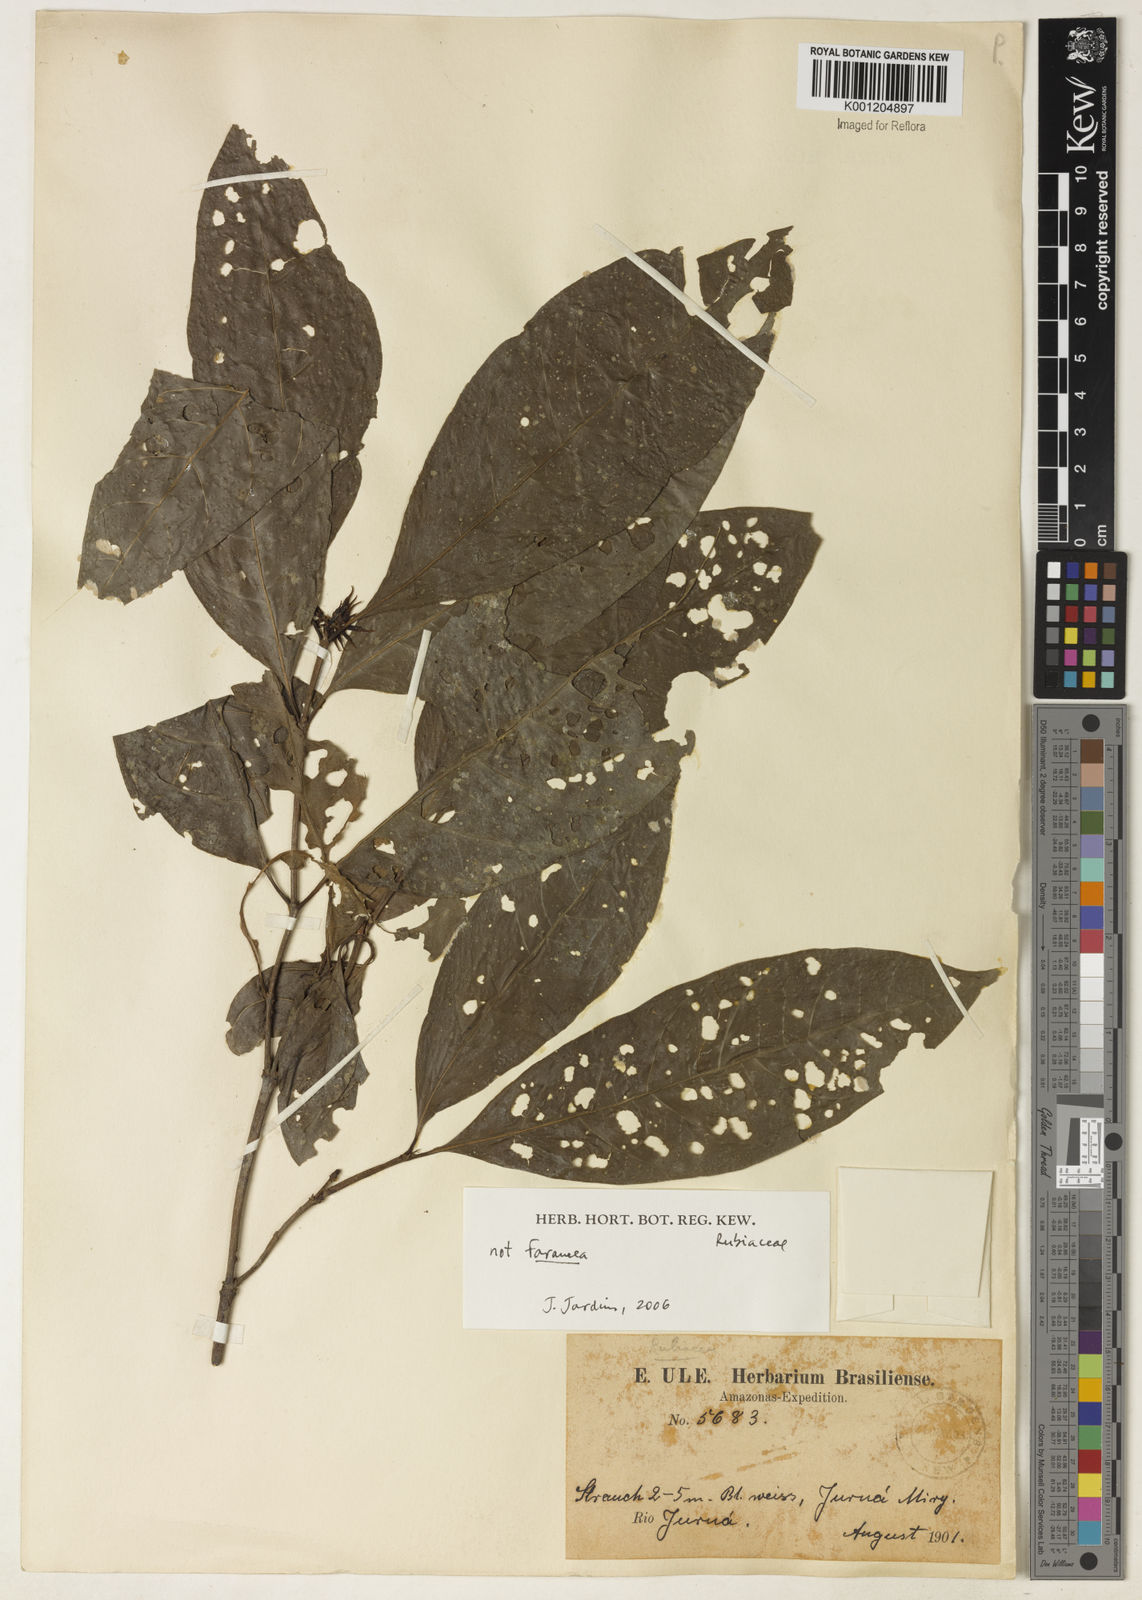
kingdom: Plantae
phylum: Tracheophyta
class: Magnoliopsida
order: Gentianales
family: Rubiaceae
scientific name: Rubiaceae
